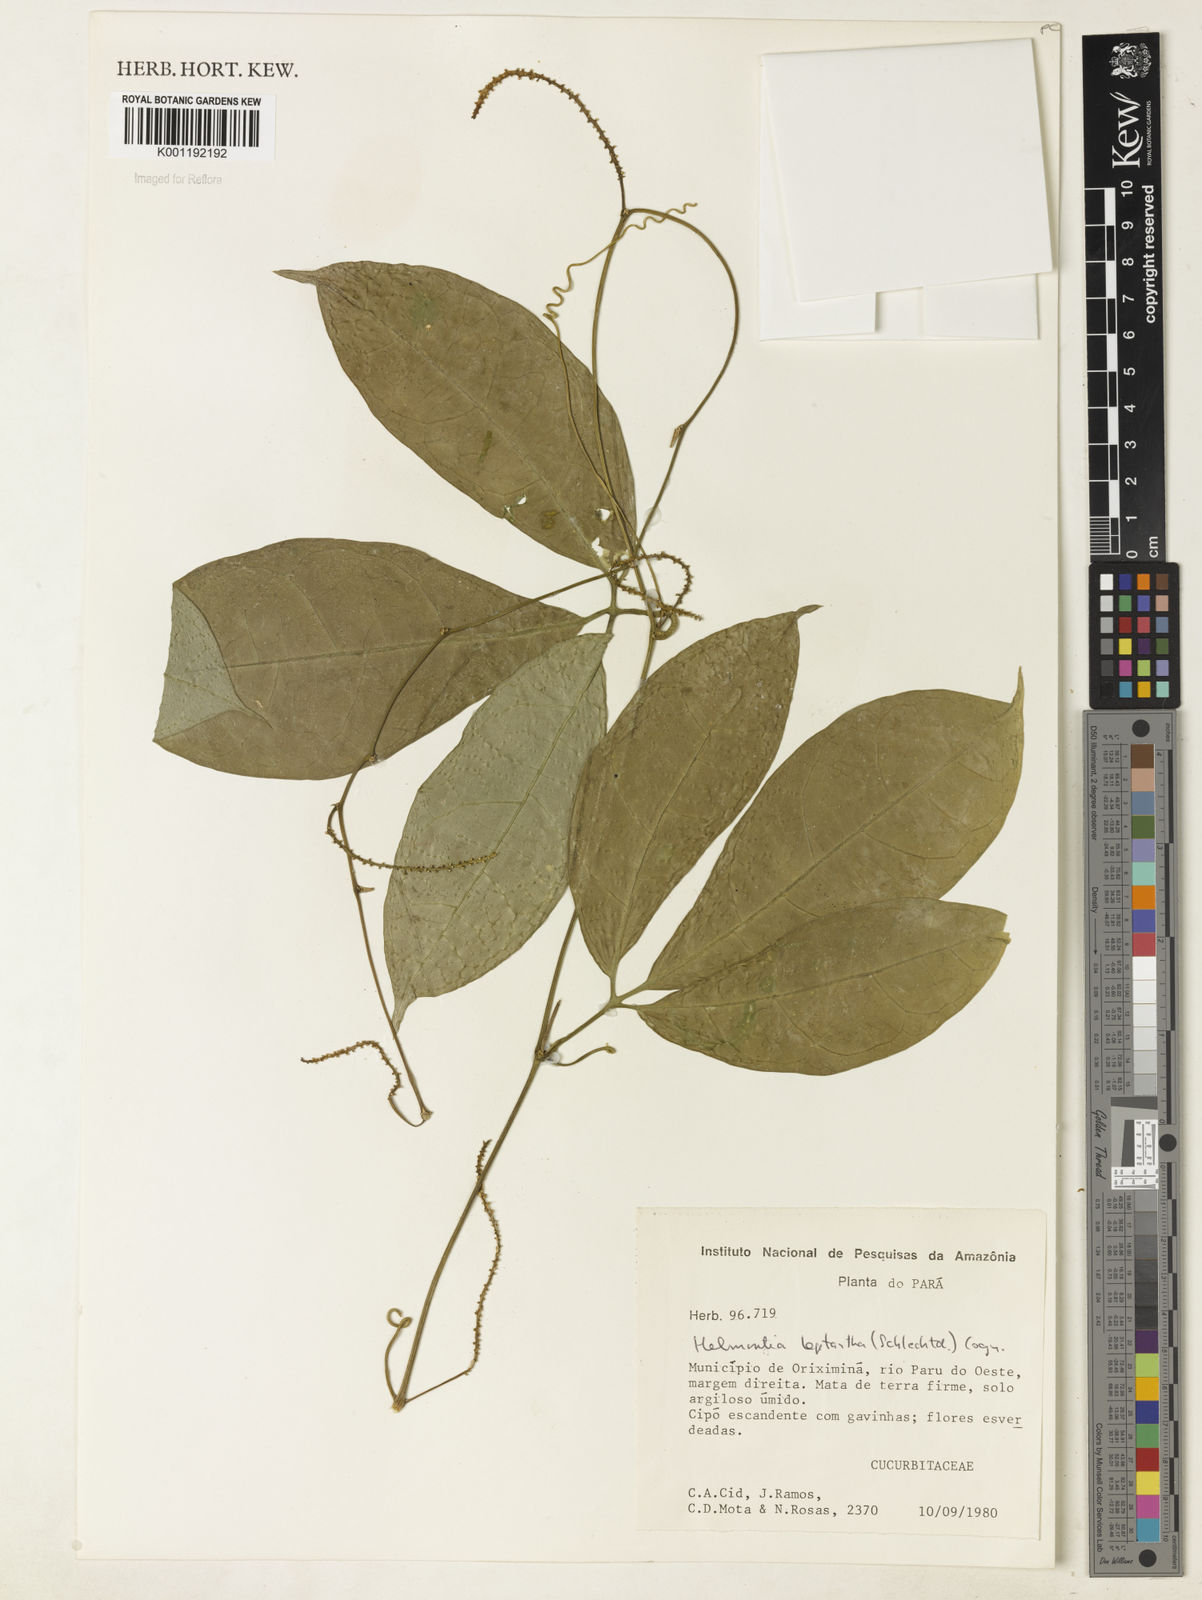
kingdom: Plantae
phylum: Tracheophyta
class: Magnoliopsida
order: Cucurbitales
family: Cucurbitaceae
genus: Helmontia
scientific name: Helmontia leptantha
